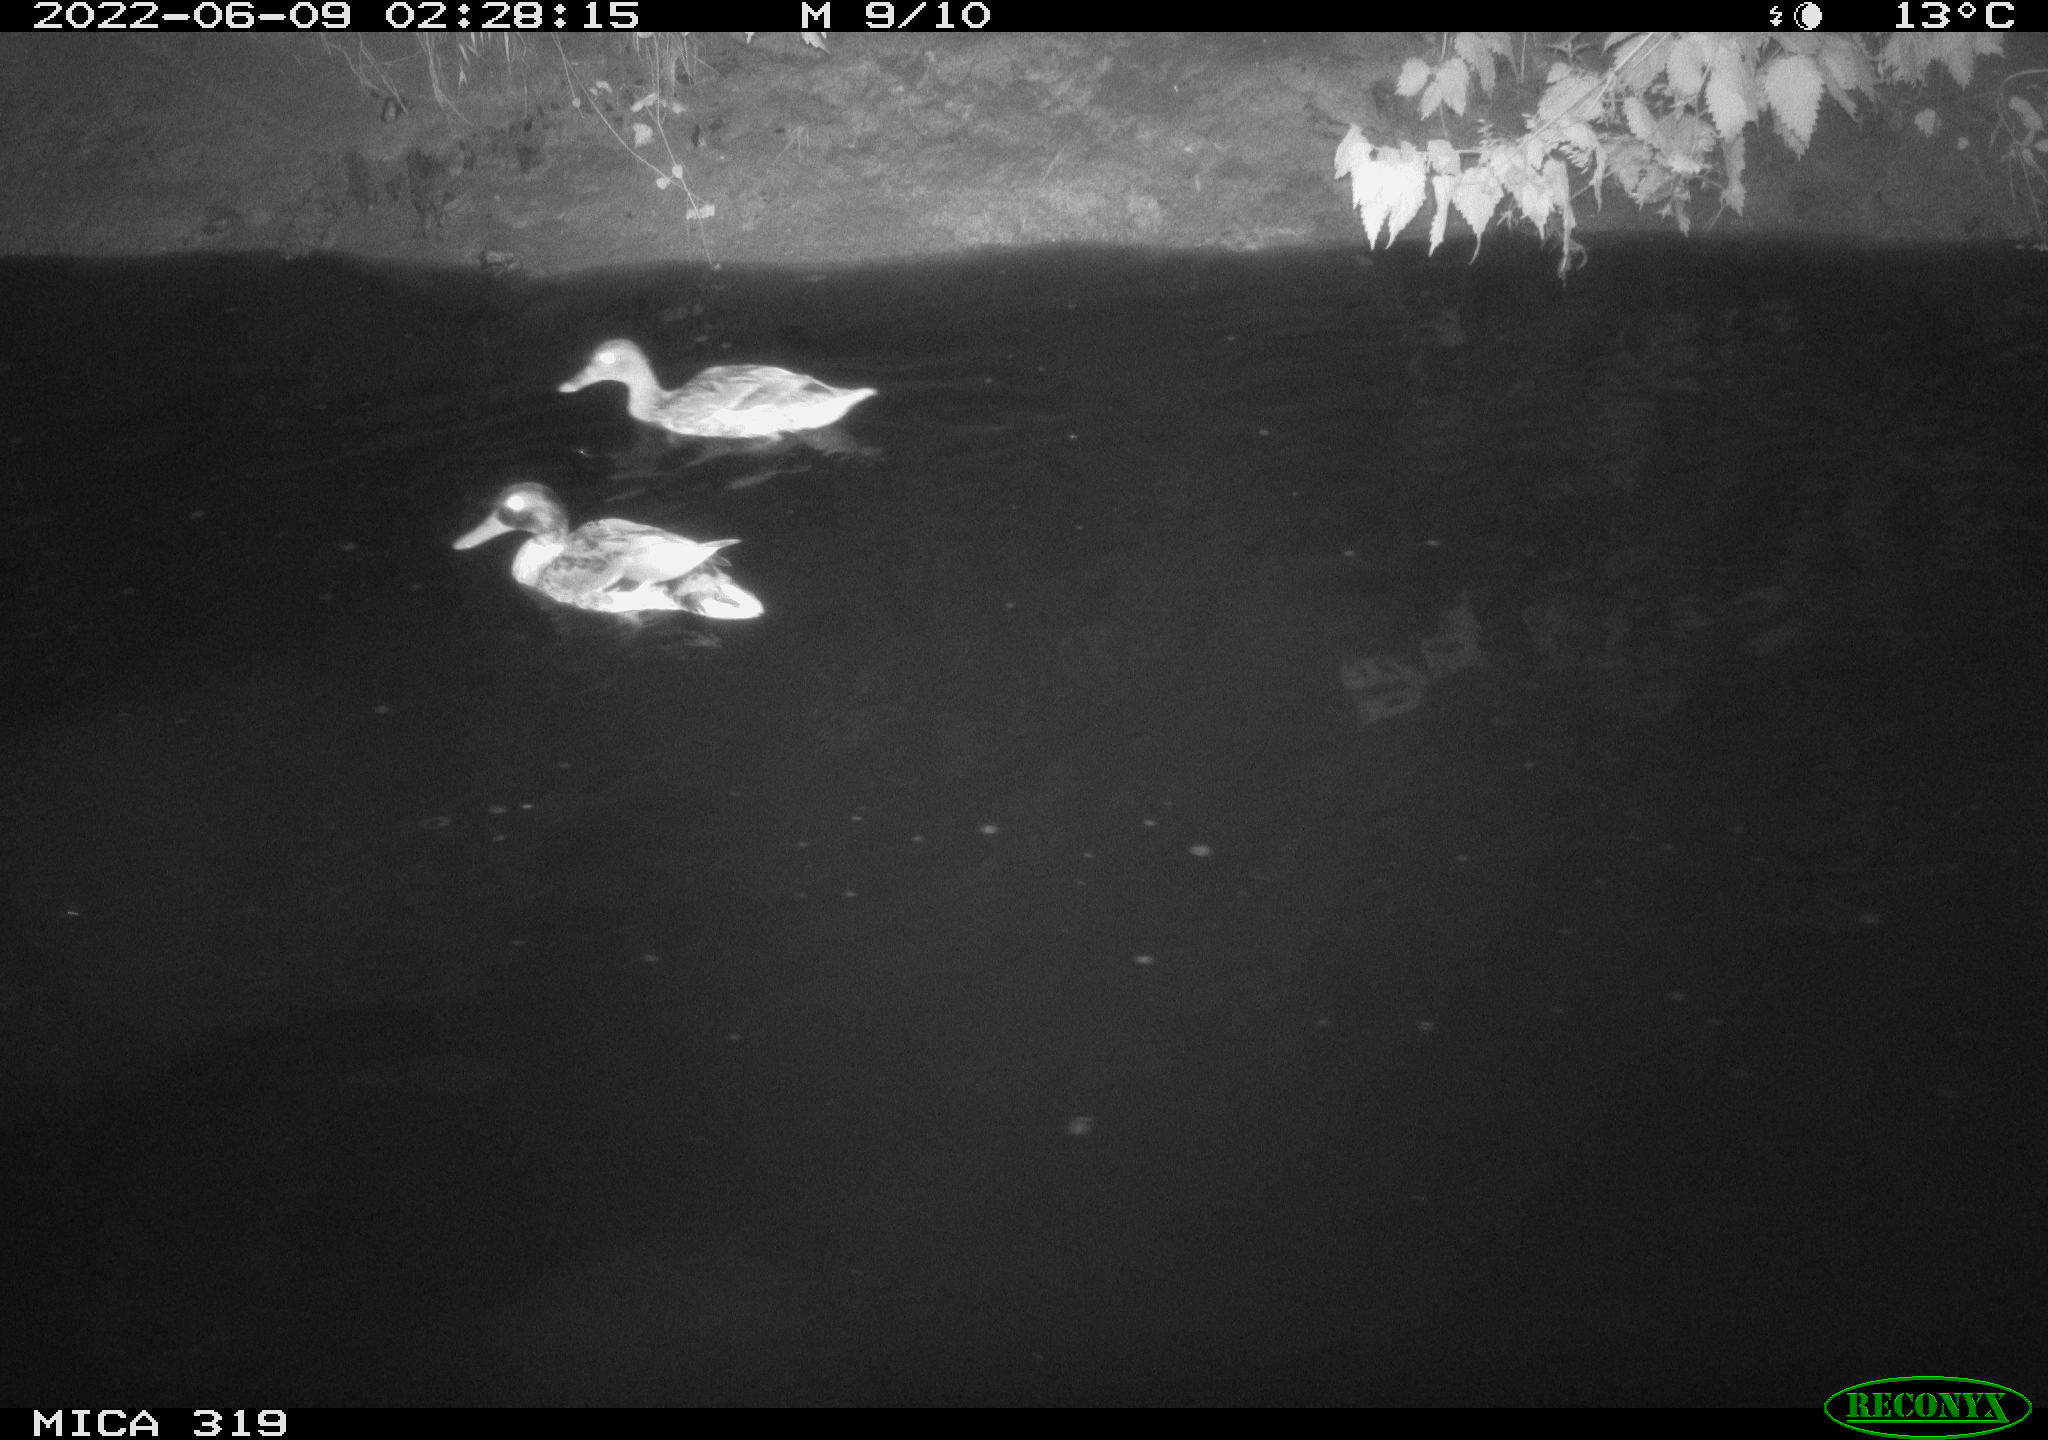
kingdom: Animalia
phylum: Chordata
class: Aves
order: Anseriformes
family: Anatidae
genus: Anas
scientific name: Anas
